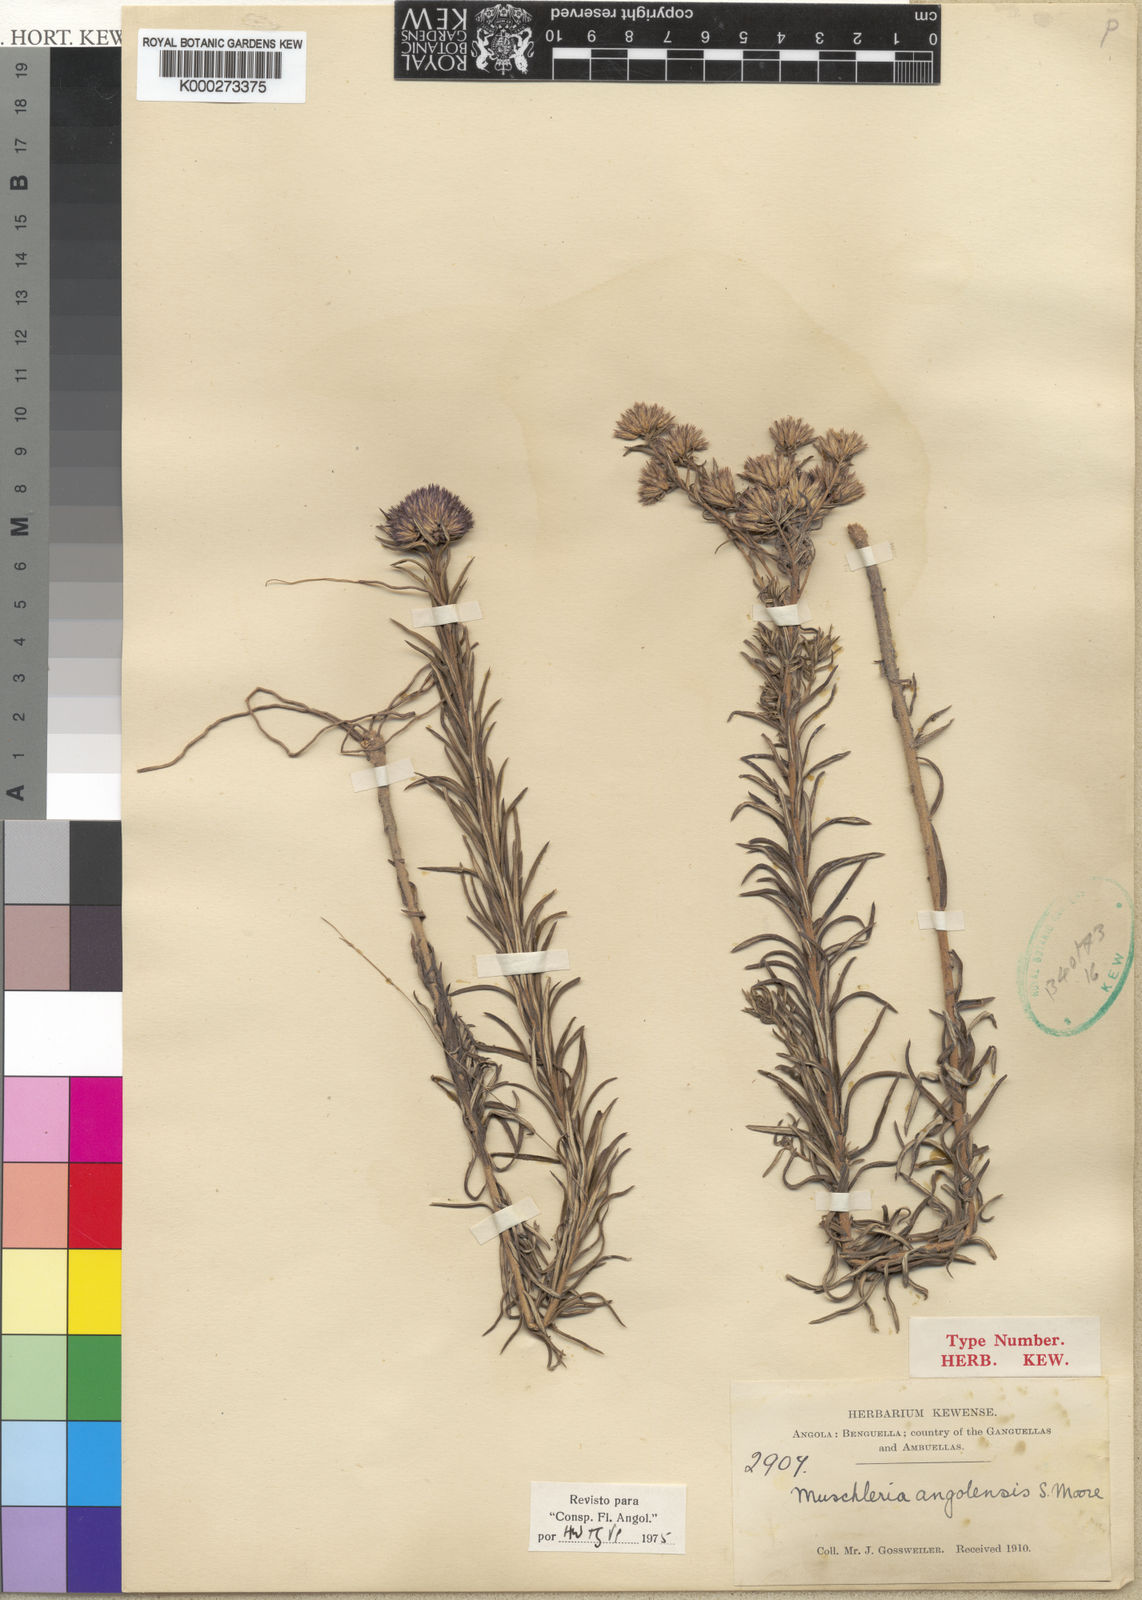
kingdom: Plantae
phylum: Tracheophyta
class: Magnoliopsida
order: Asterales
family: Asteraceae
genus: Muschleria
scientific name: Muschleria angolensis
